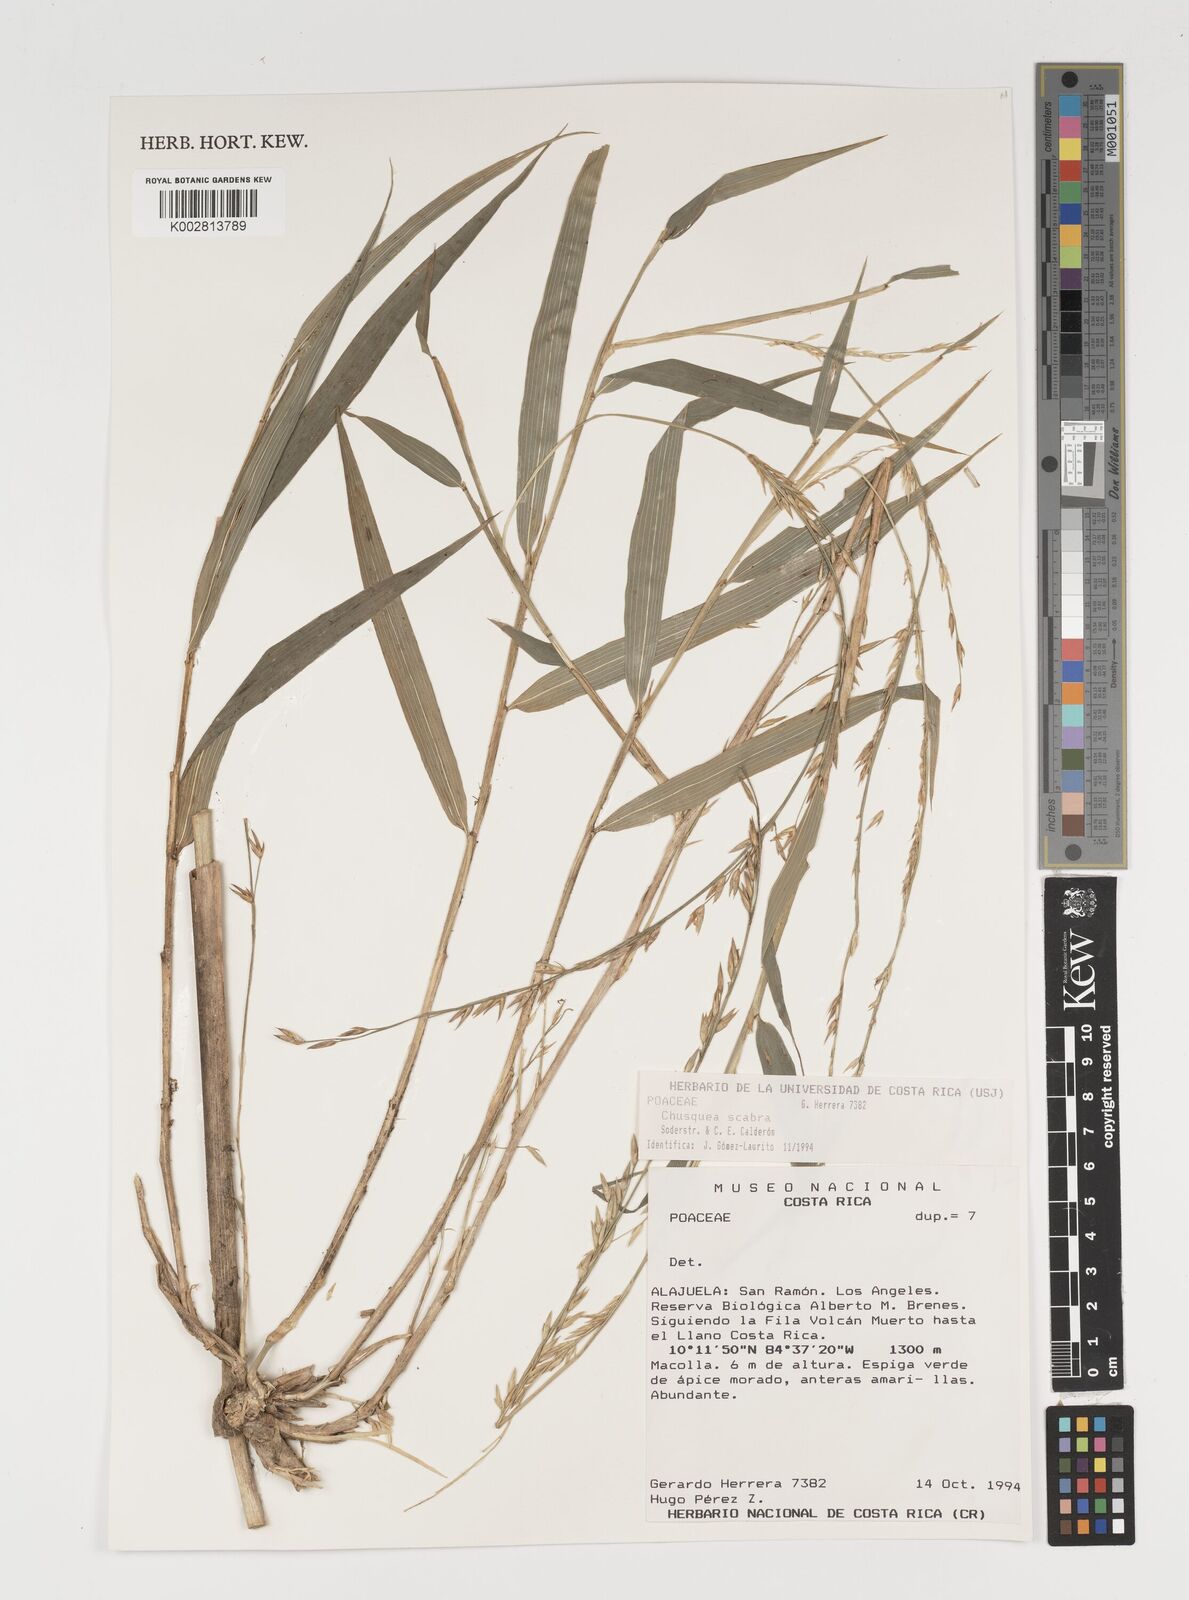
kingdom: Plantae
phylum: Tracheophyta
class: Liliopsida
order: Poales
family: Poaceae
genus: Chusquea
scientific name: Chusquea scabra
